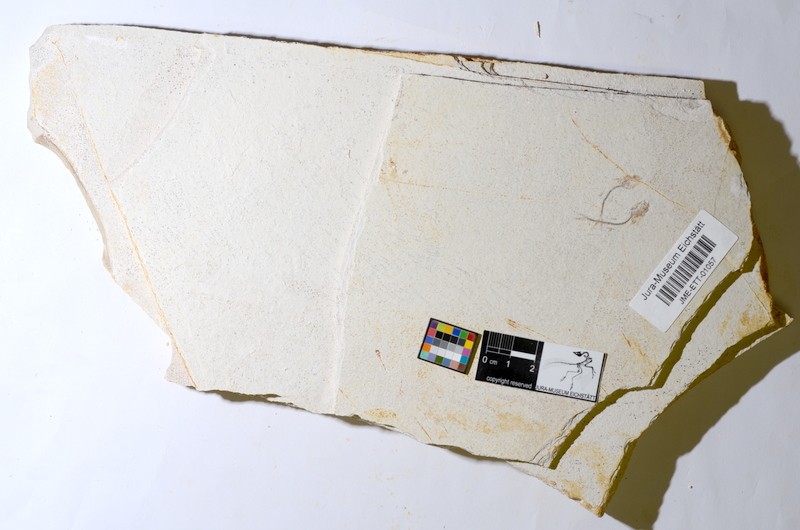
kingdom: Animalia
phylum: Chordata
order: Salmoniformes
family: Orthogonikleithridae
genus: Orthogonikleithrus
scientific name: Orthogonikleithrus hoelli
